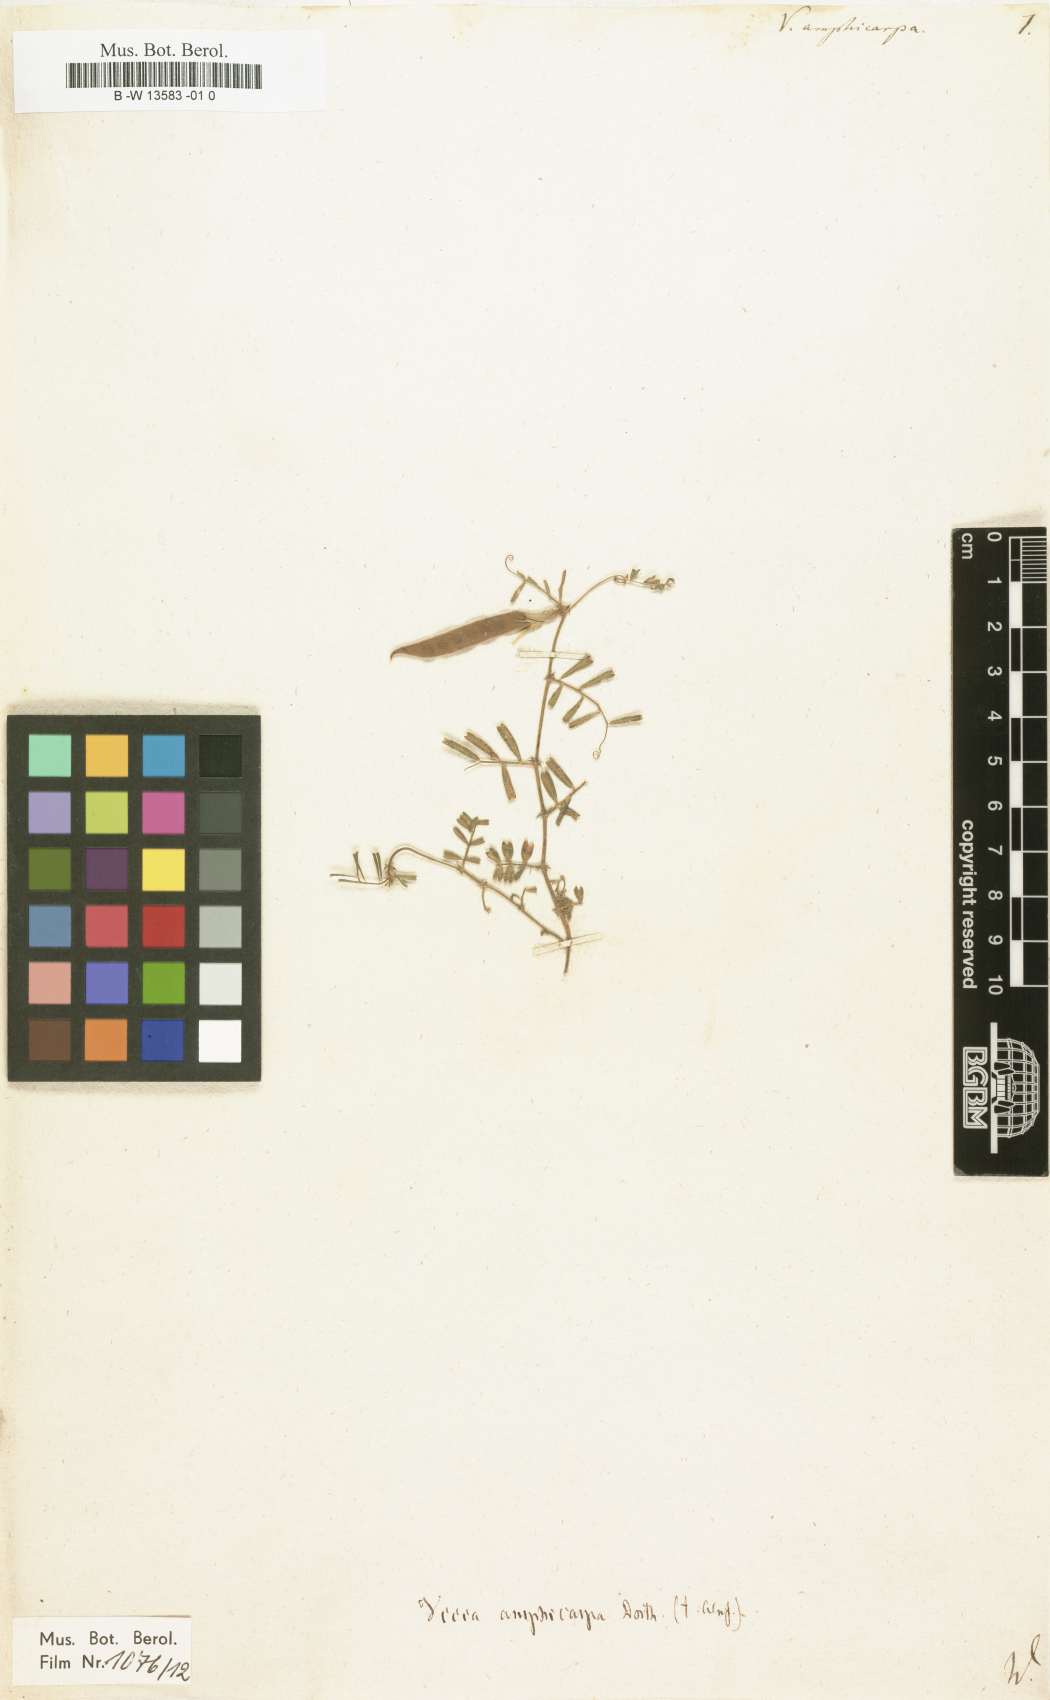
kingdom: Plantae
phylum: Tracheophyta
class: Magnoliopsida
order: Fabales
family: Fabaceae
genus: Vicia
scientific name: Vicia sativa
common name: Garden vetch
